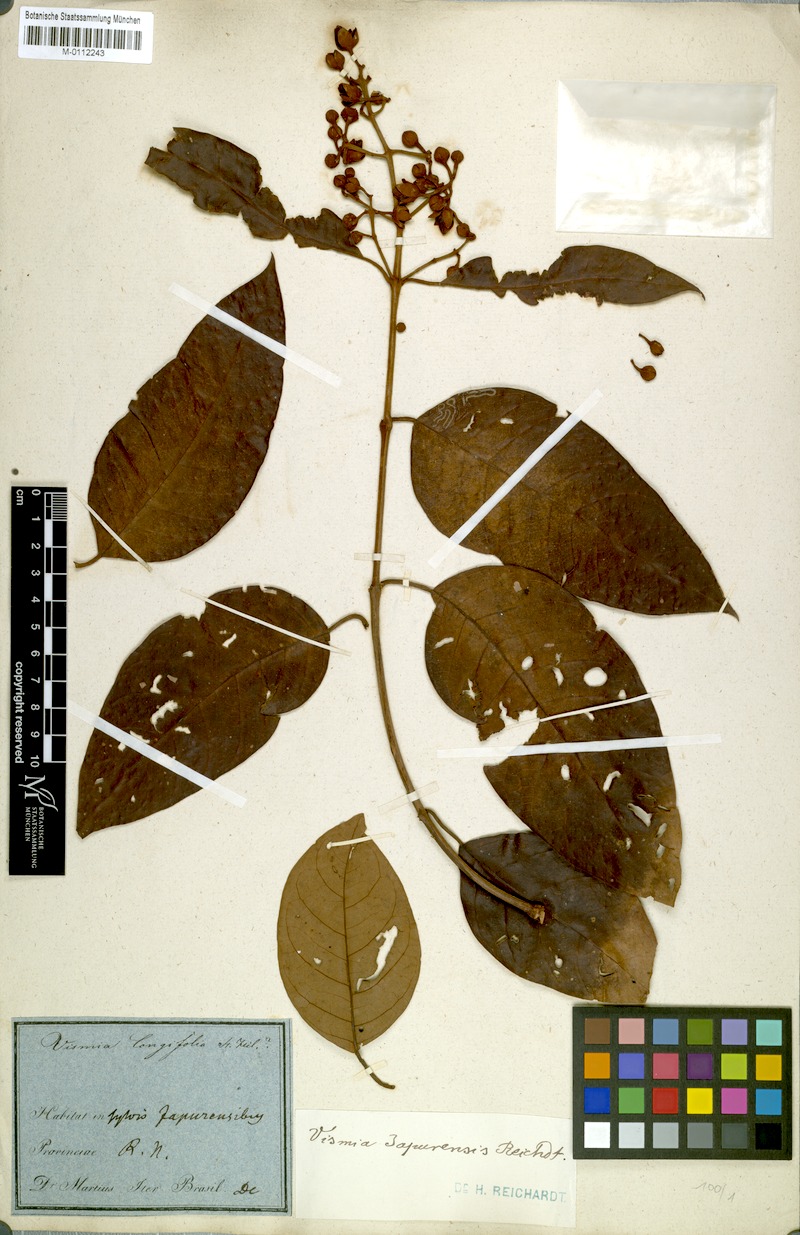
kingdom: Plantae
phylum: Tracheophyta
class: Magnoliopsida
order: Malpighiales
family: Hypericaceae
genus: Vismia
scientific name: Vismia japurensis
